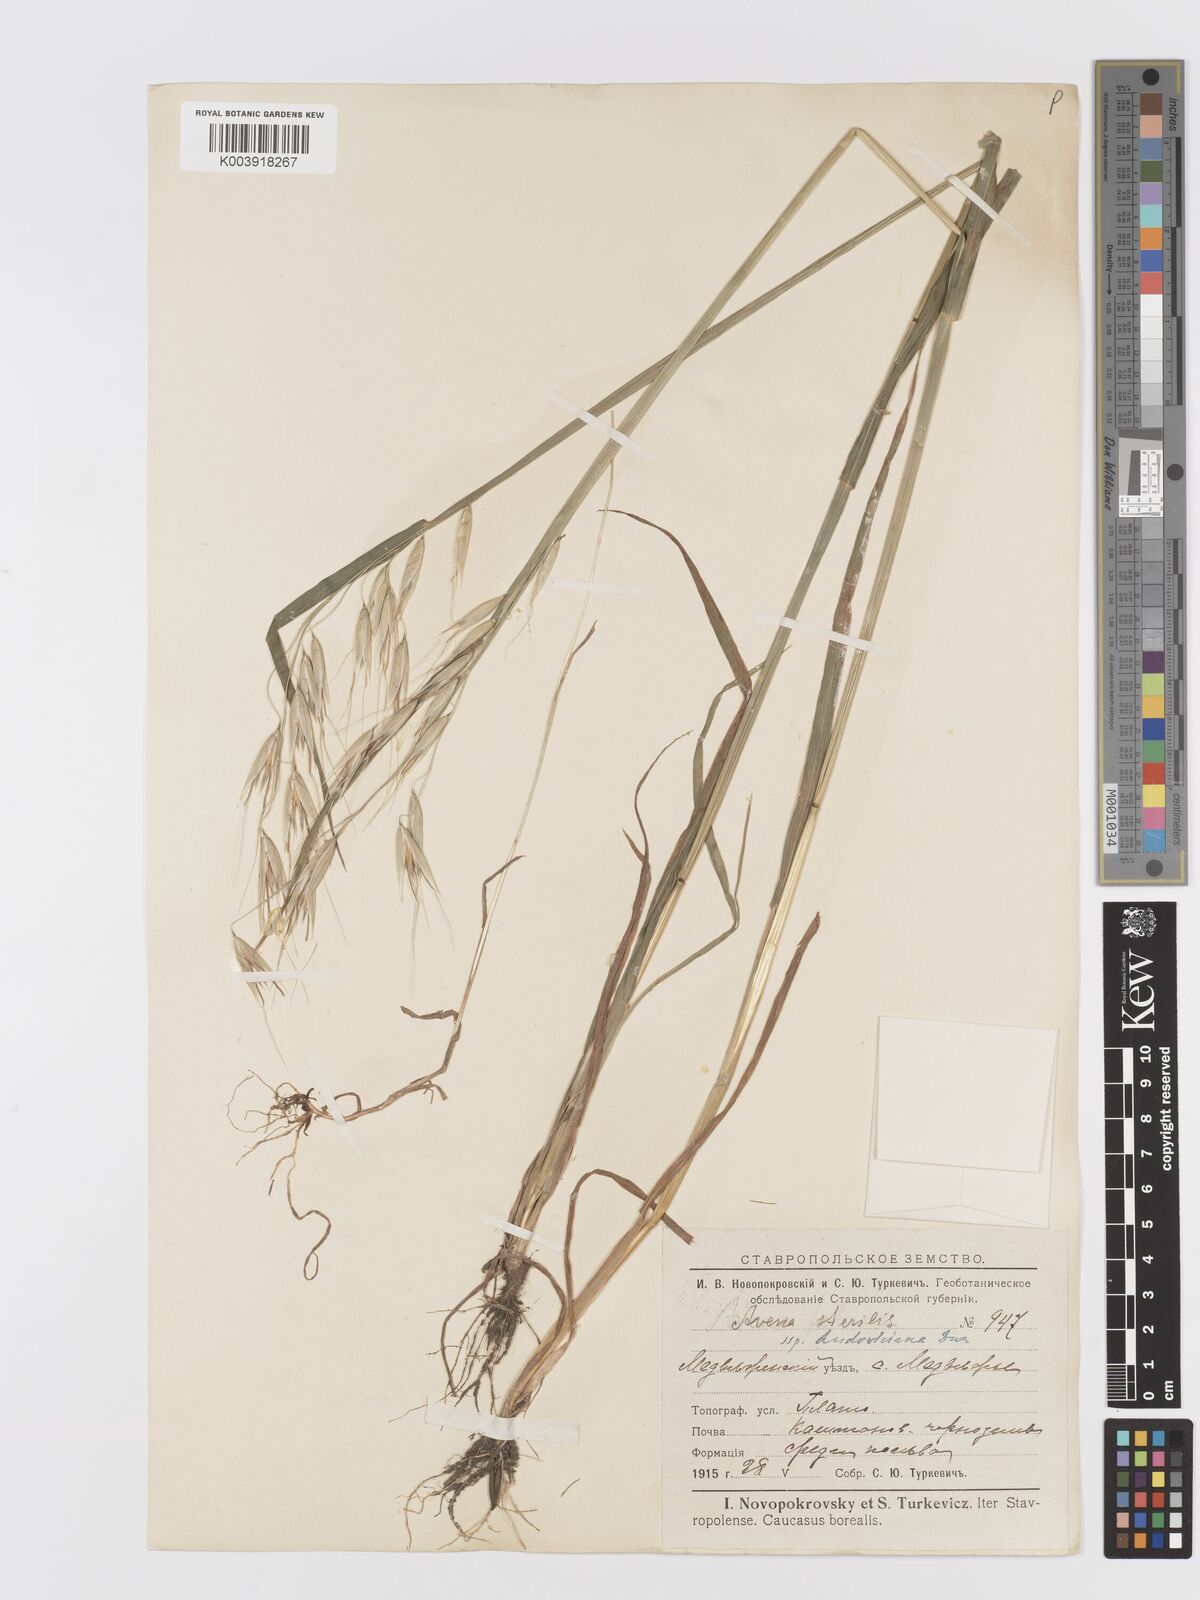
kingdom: Plantae
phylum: Tracheophyta
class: Liliopsida
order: Poales
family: Poaceae
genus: Avena
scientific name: Avena sterilis
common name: Animated oat
